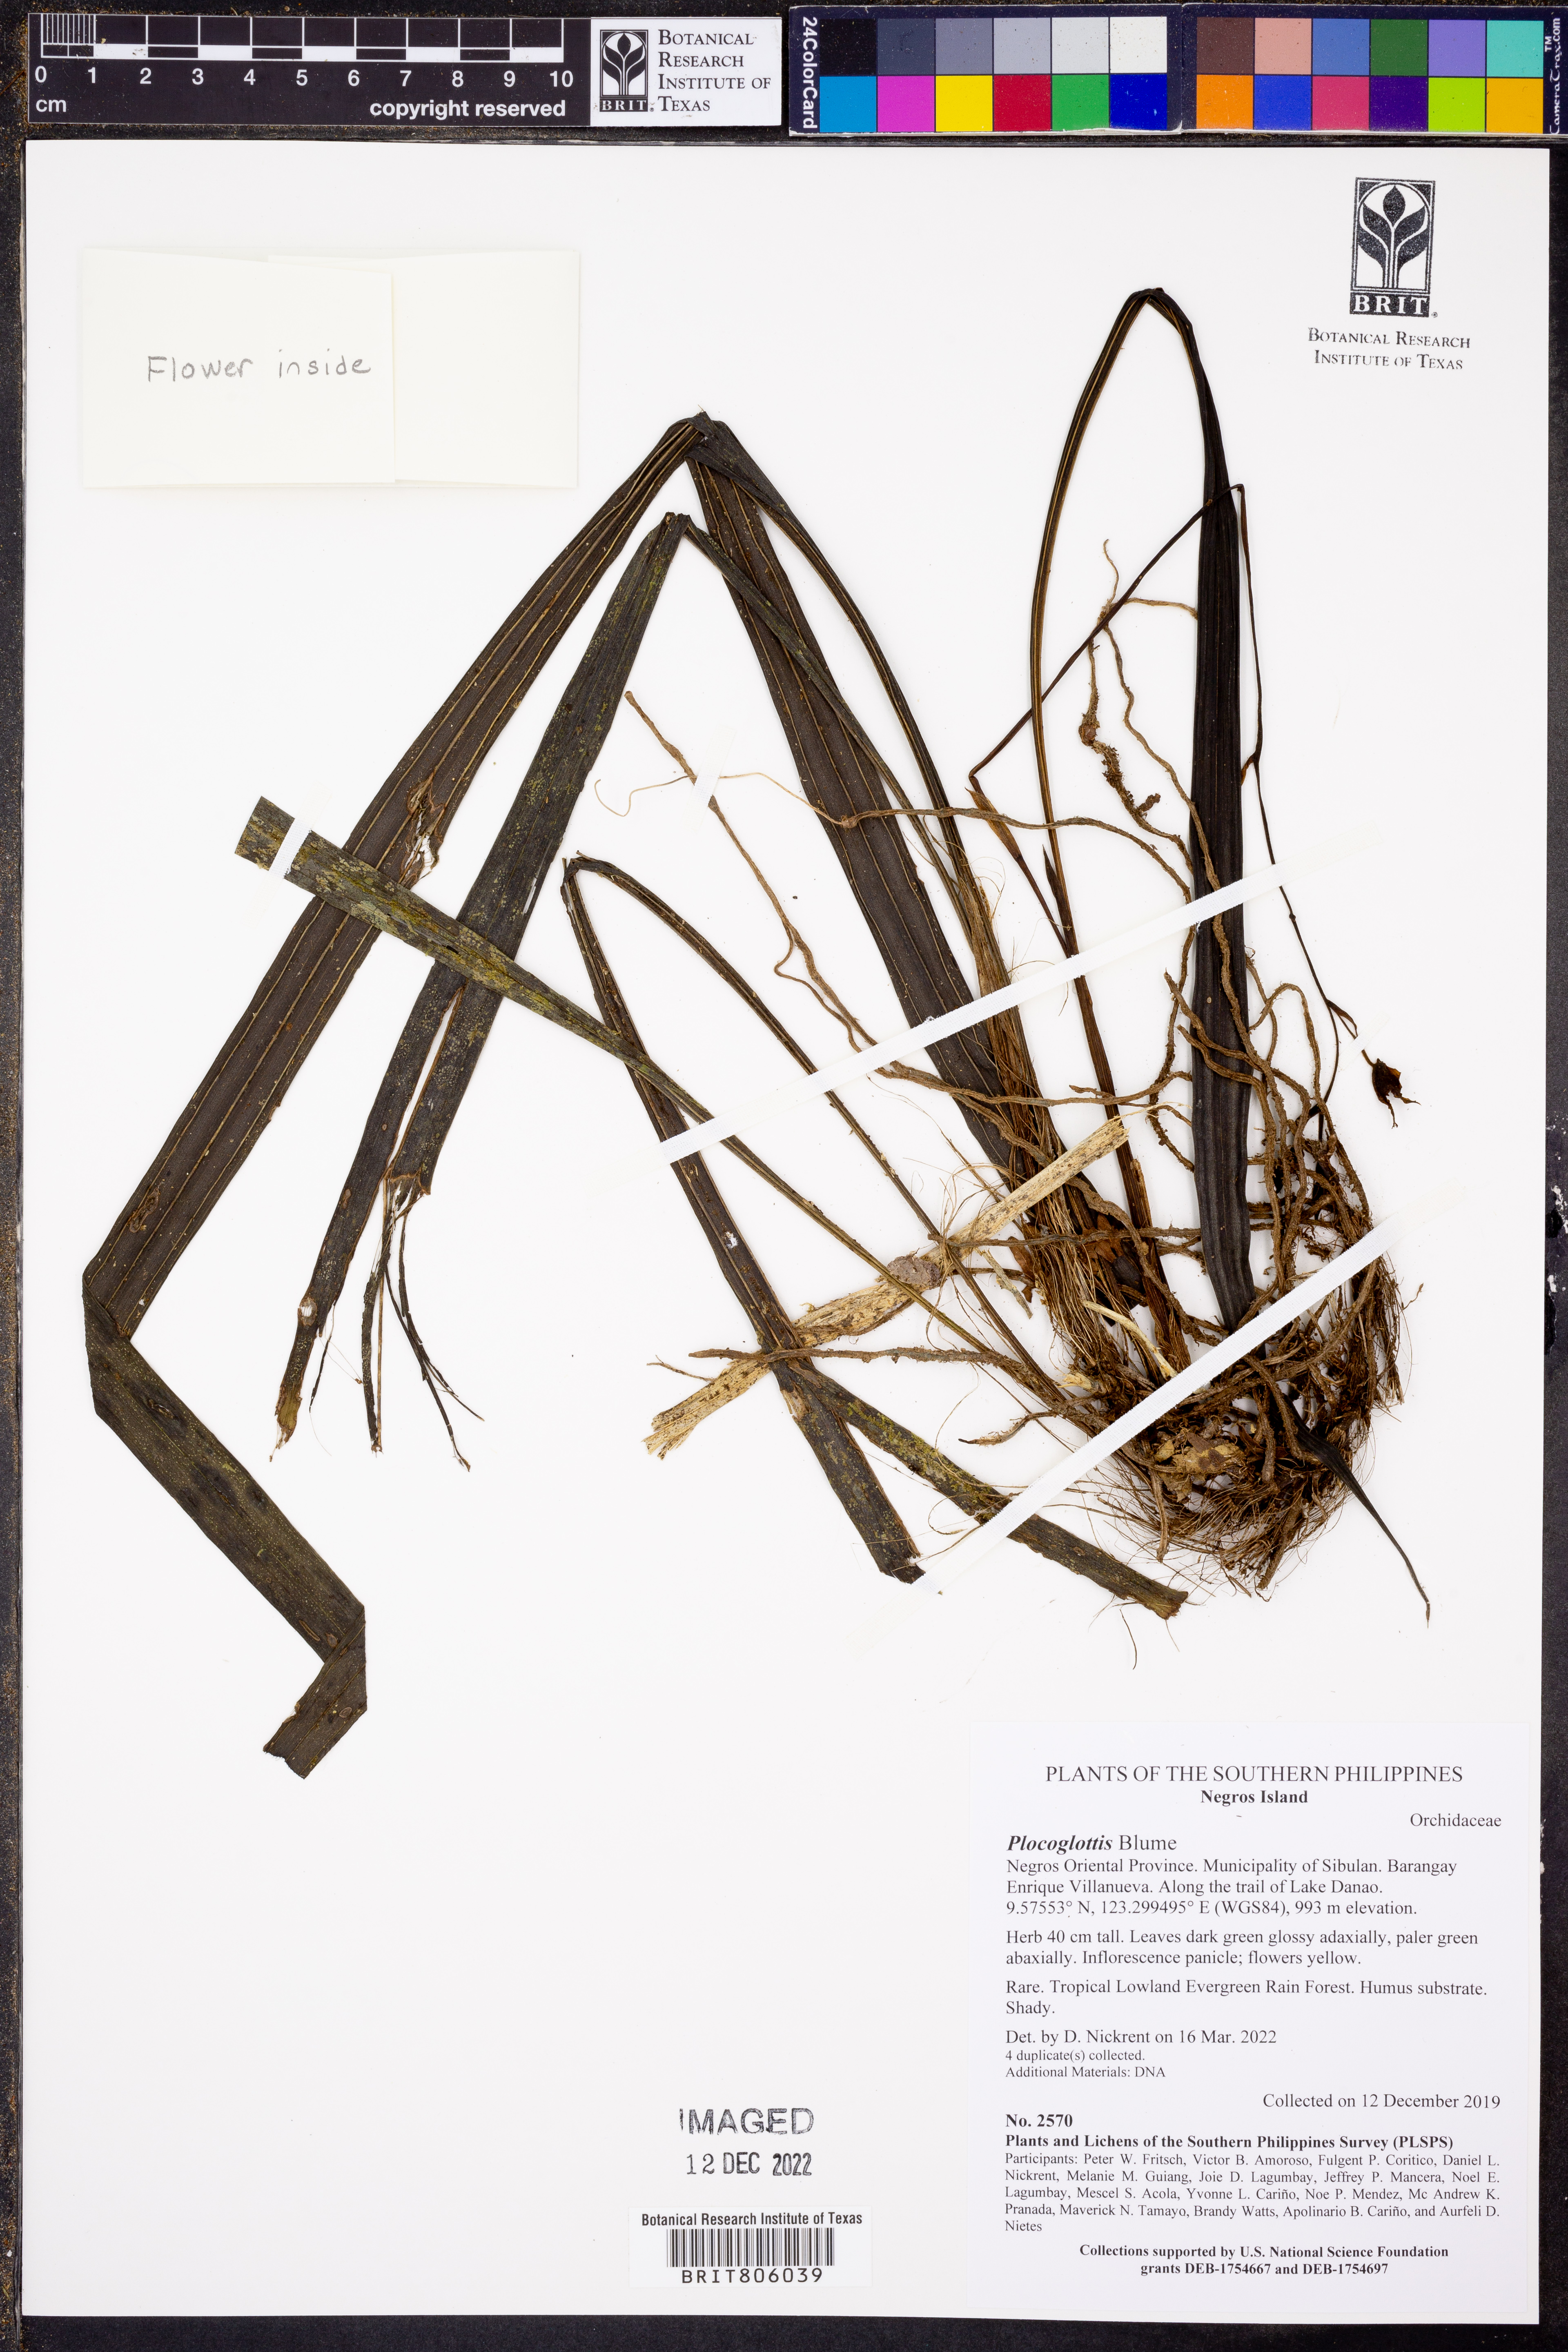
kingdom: Plantae
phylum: Tracheophyta
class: Liliopsida
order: Asparagales
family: Orchidaceae
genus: Plocoglottis
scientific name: Plocoglottis
